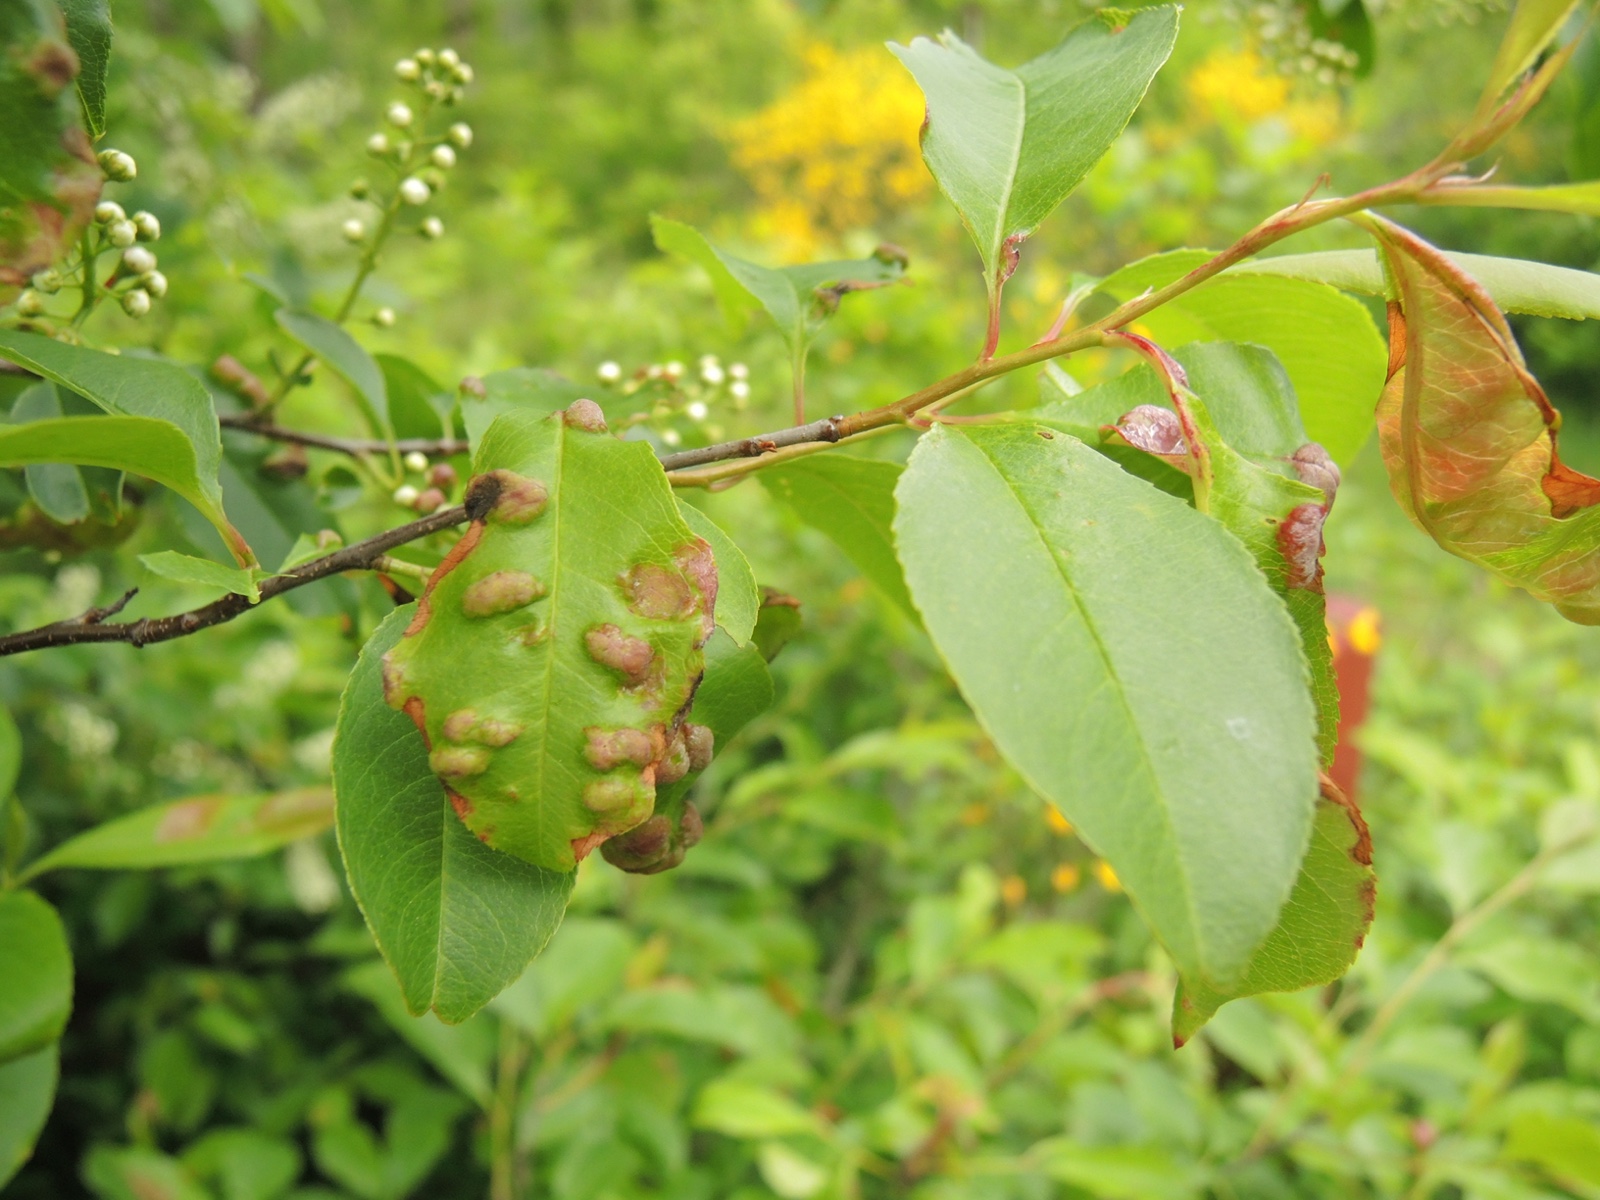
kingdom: Fungi
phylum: Ascomycota
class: Taphrinomycetes
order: Taphrinales
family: Taphrinaceae
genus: Taphrina
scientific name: Taphrina farlowii
